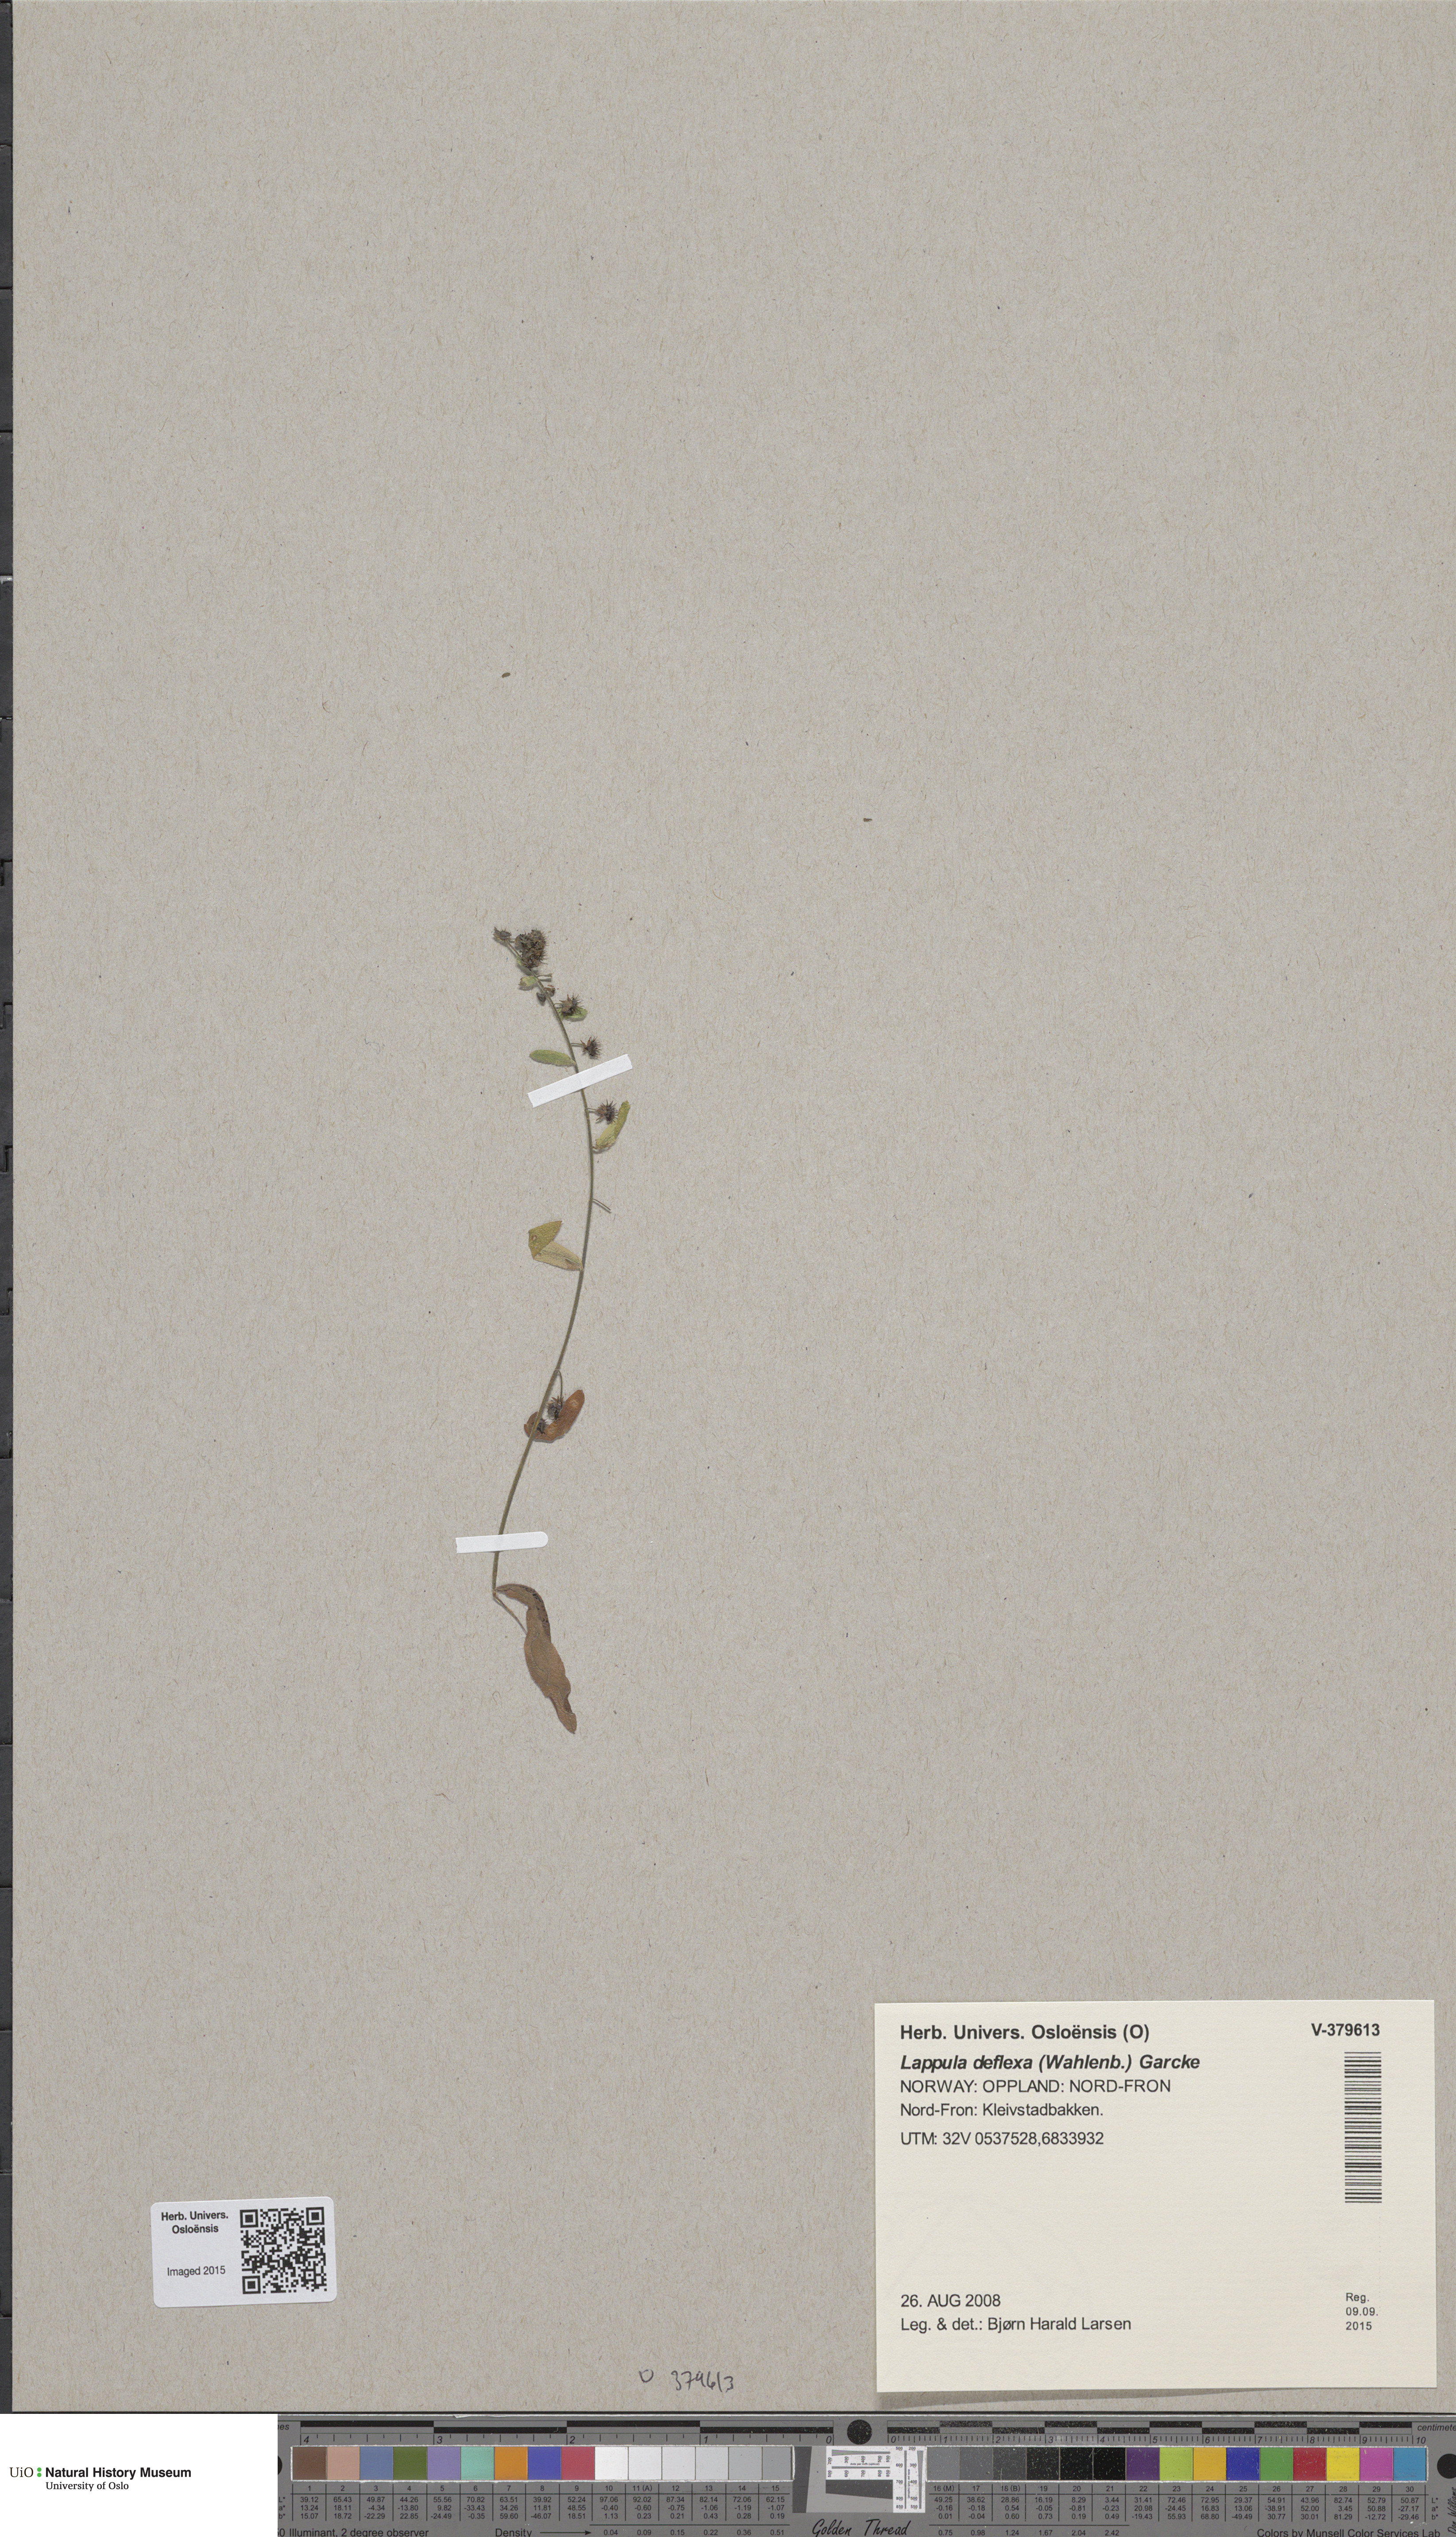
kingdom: Plantae
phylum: Tracheophyta
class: Magnoliopsida
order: Boraginales
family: Boraginaceae
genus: Hackelia
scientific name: Hackelia deflexa
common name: Nodding stickseed
